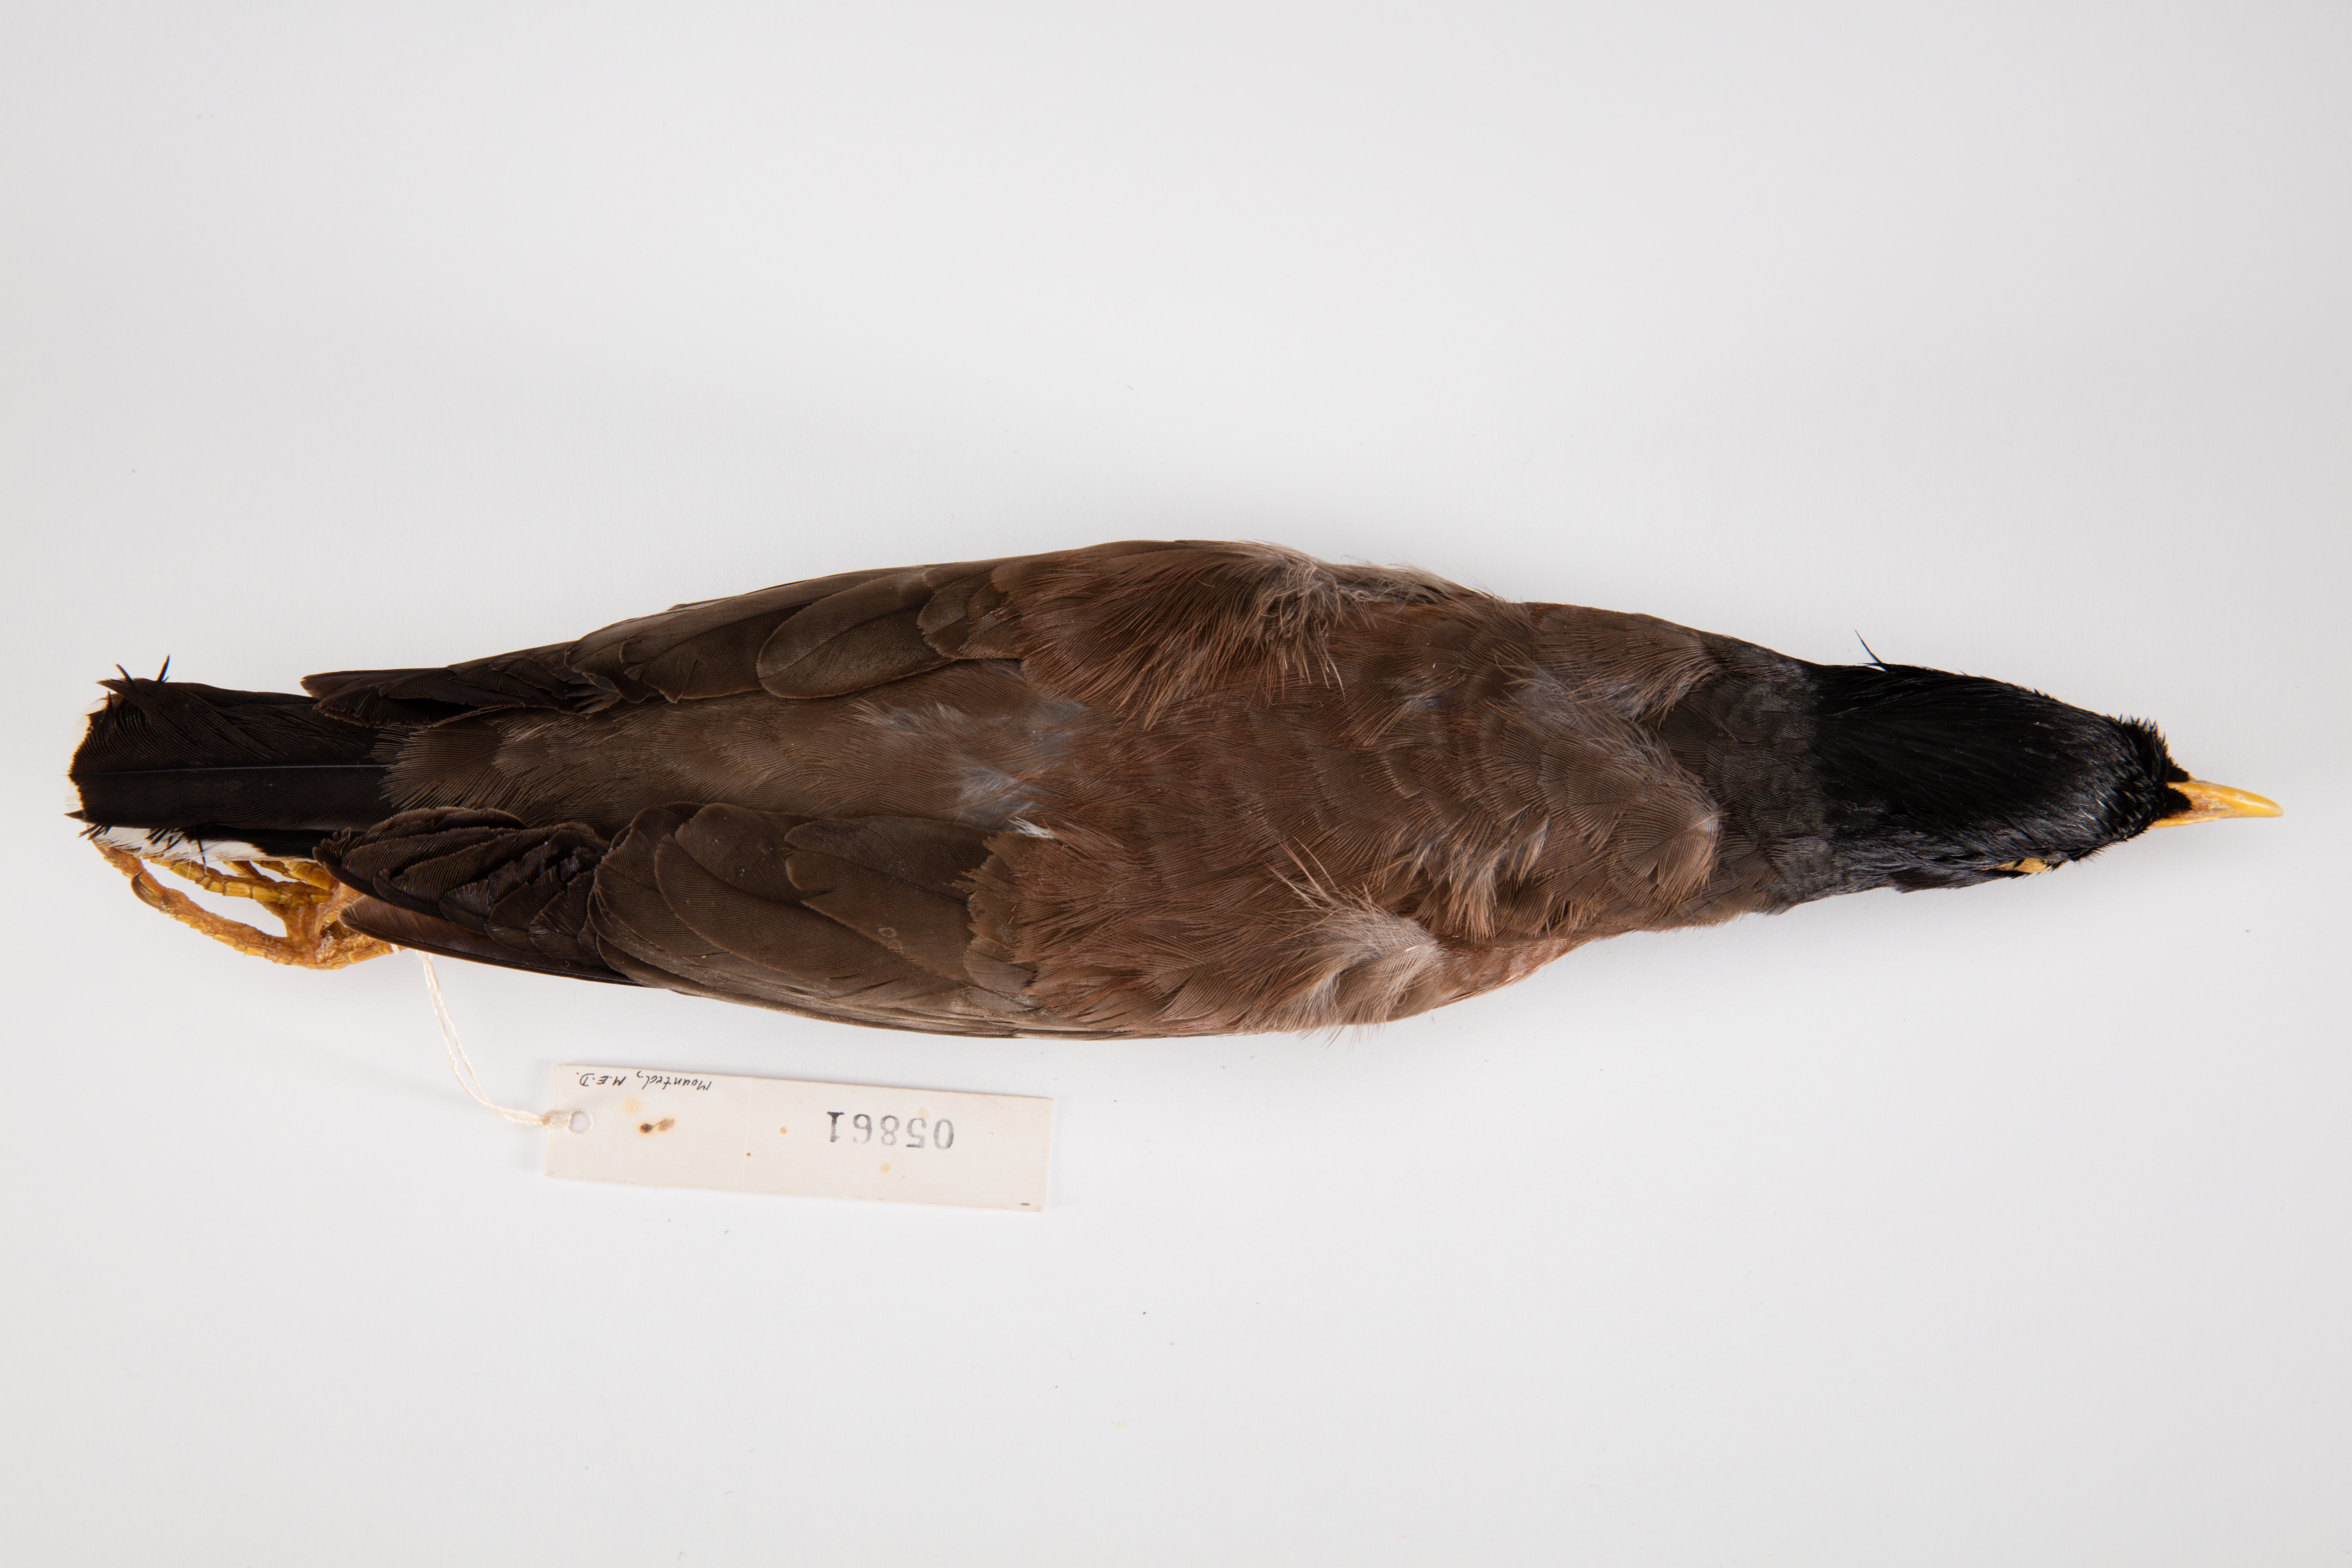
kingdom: Animalia
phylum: Chordata
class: Aves
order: Passeriformes
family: Sturnidae
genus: Acridotheres
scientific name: Acridotheres tristis
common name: Common myna
